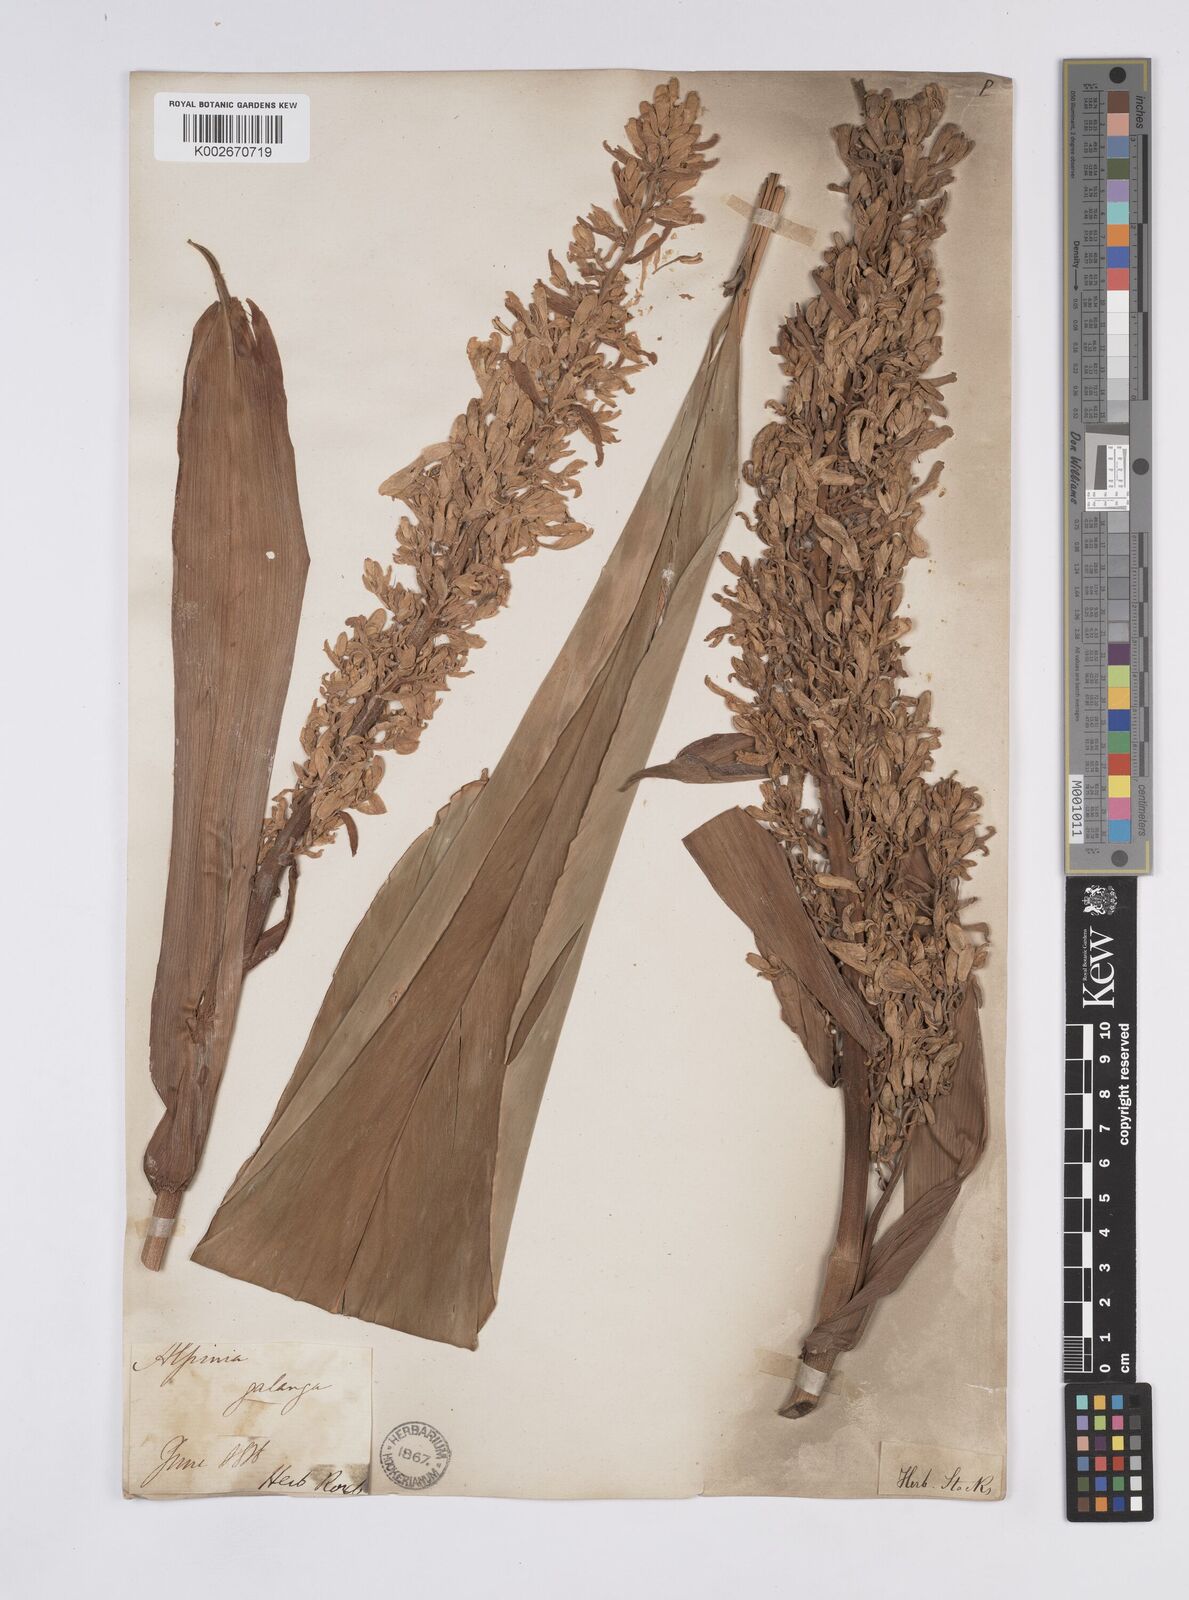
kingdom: Plantae
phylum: Tracheophyta
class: Liliopsida
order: Zingiberales
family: Zingiberaceae
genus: Alpinia
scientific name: Alpinia galanga
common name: Siamese-ginger
